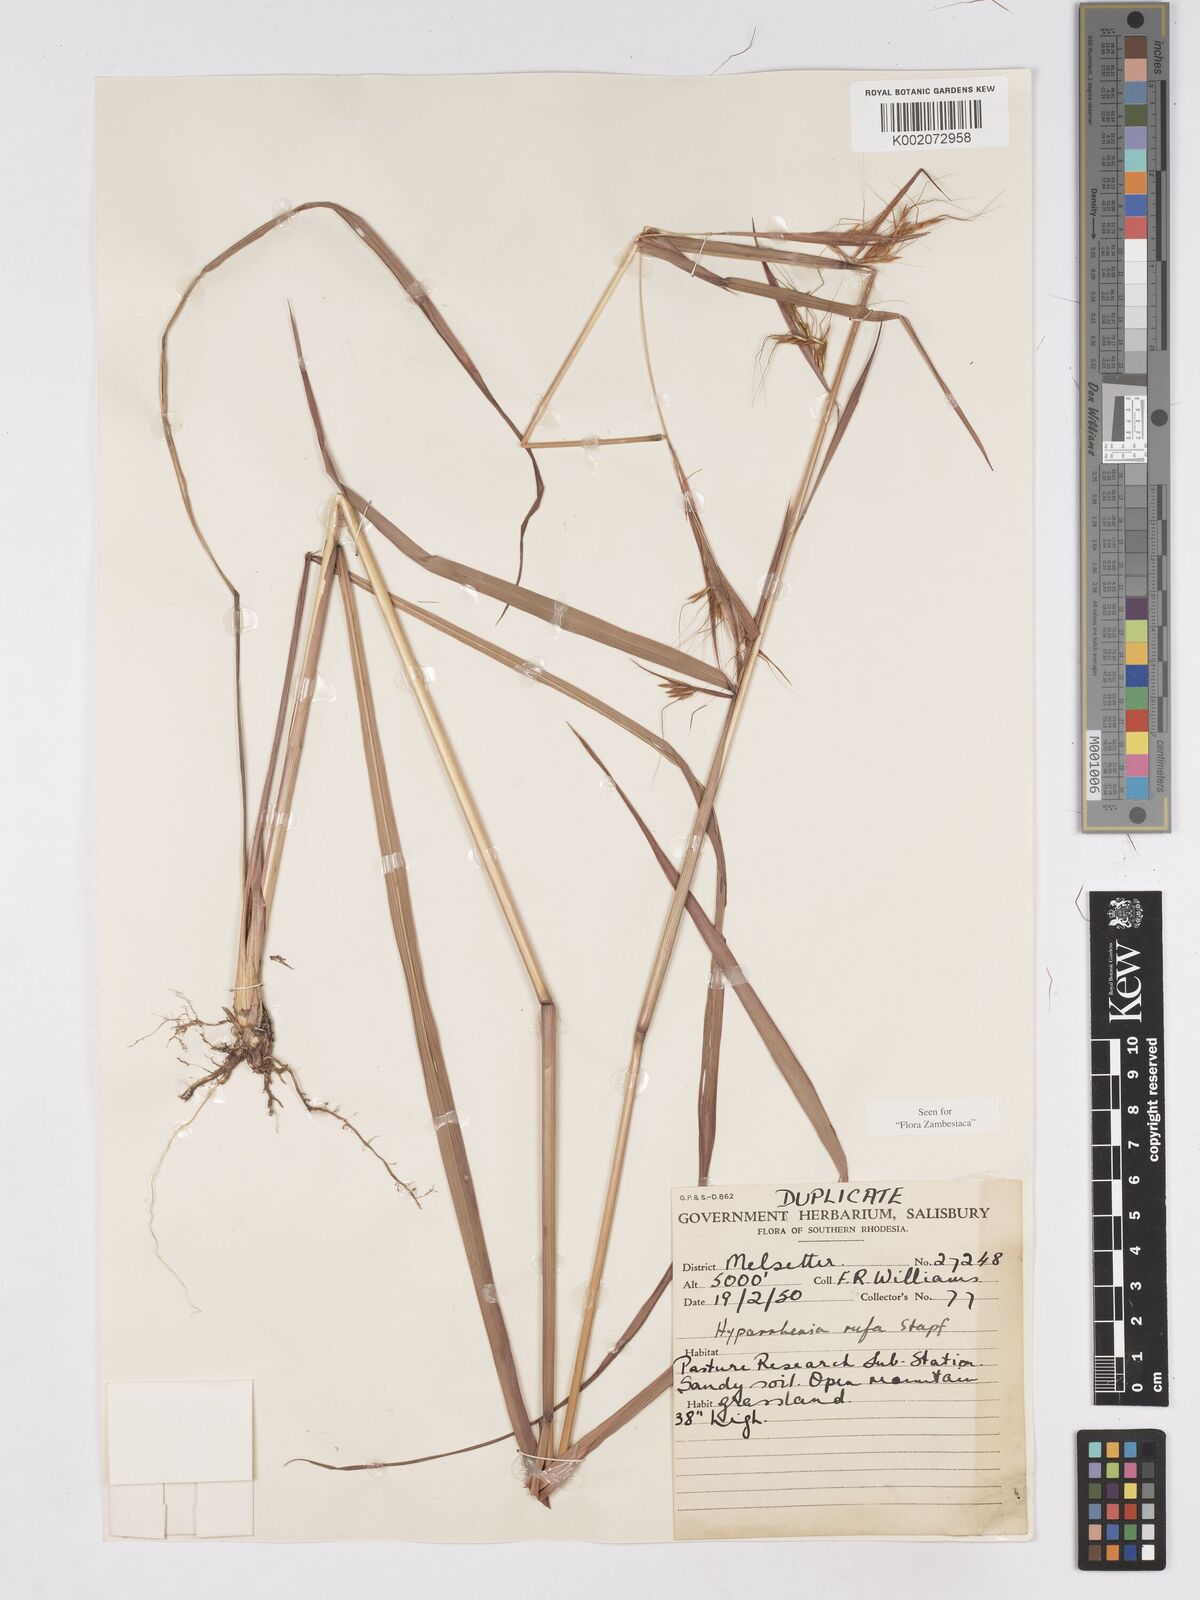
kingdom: Plantae
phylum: Tracheophyta
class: Liliopsida
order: Poales
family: Poaceae
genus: Hyparrhenia
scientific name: Hyparrhenia rufa
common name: Jaraguagrass
